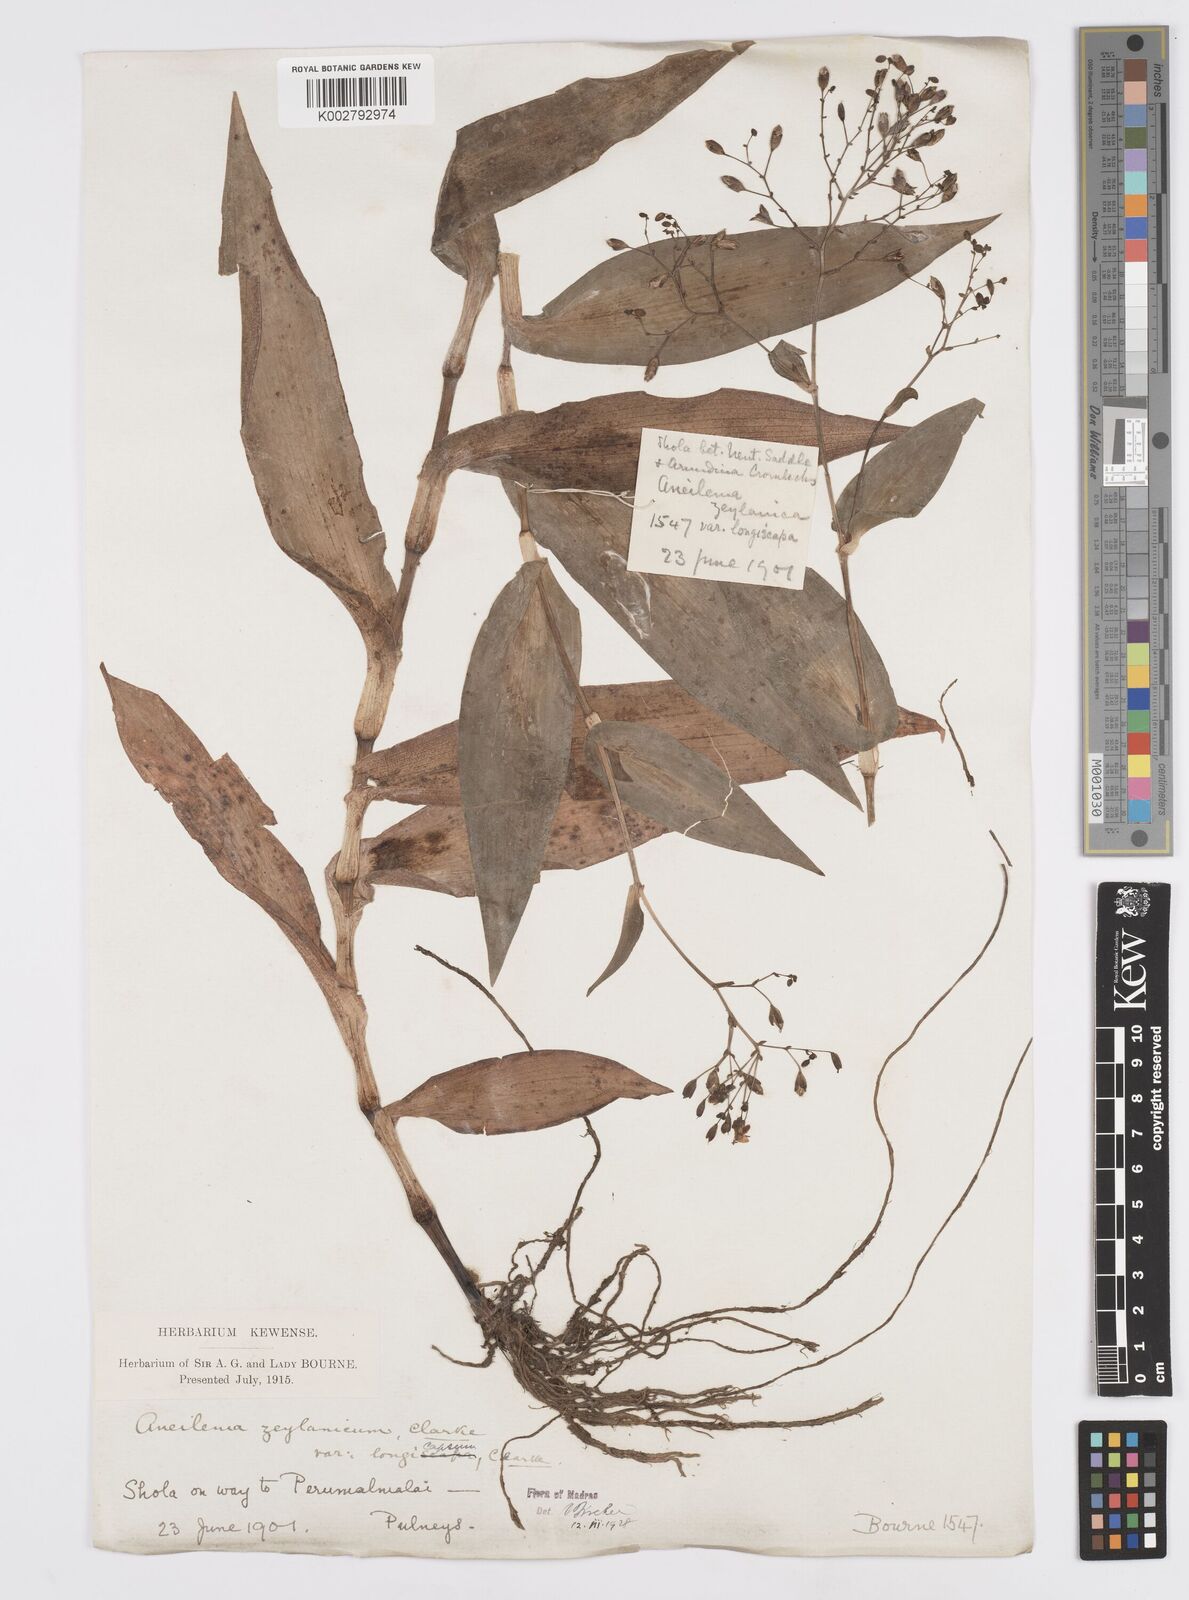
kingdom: Plantae
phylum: Tracheophyta
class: Liliopsida
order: Commelinales
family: Commelinaceae
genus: Murdannia
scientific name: Murdannia zeylanica
